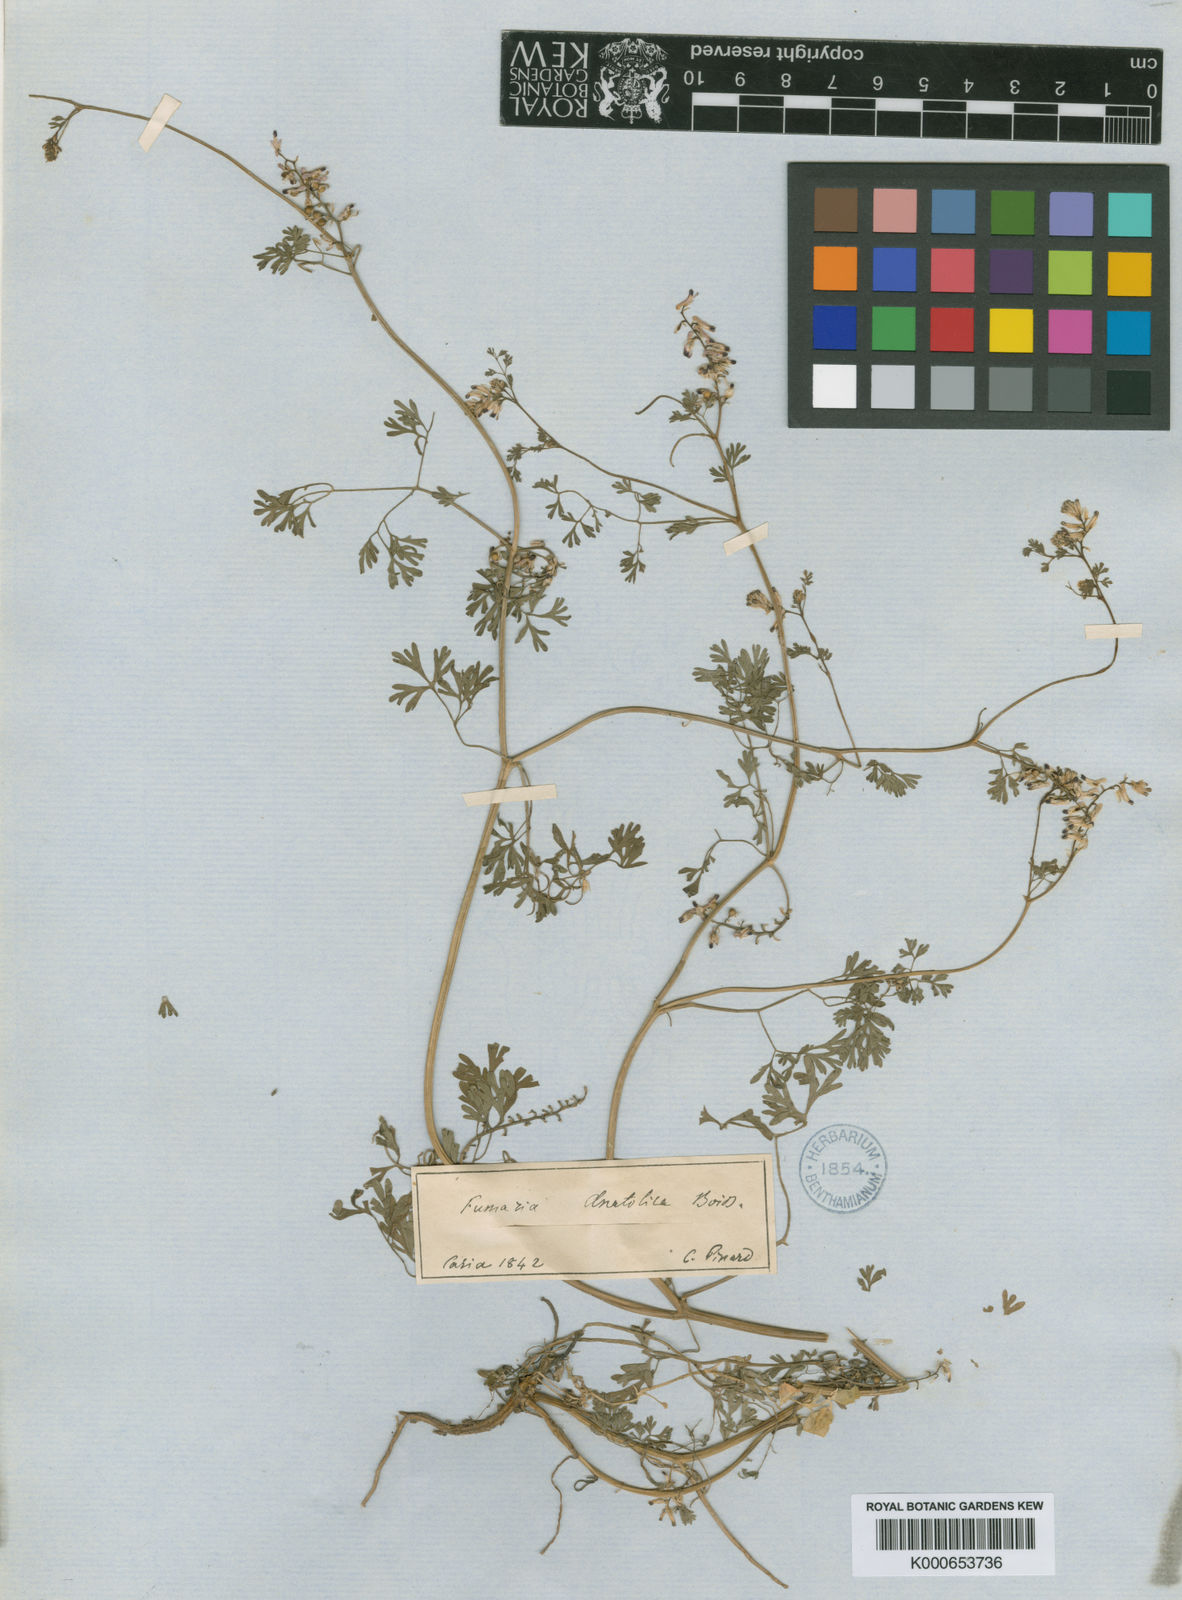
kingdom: Plantae
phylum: Tracheophyta
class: Magnoliopsida
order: Ranunculales
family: Papaveraceae
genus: Fumaria
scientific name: Fumaria kralikii
